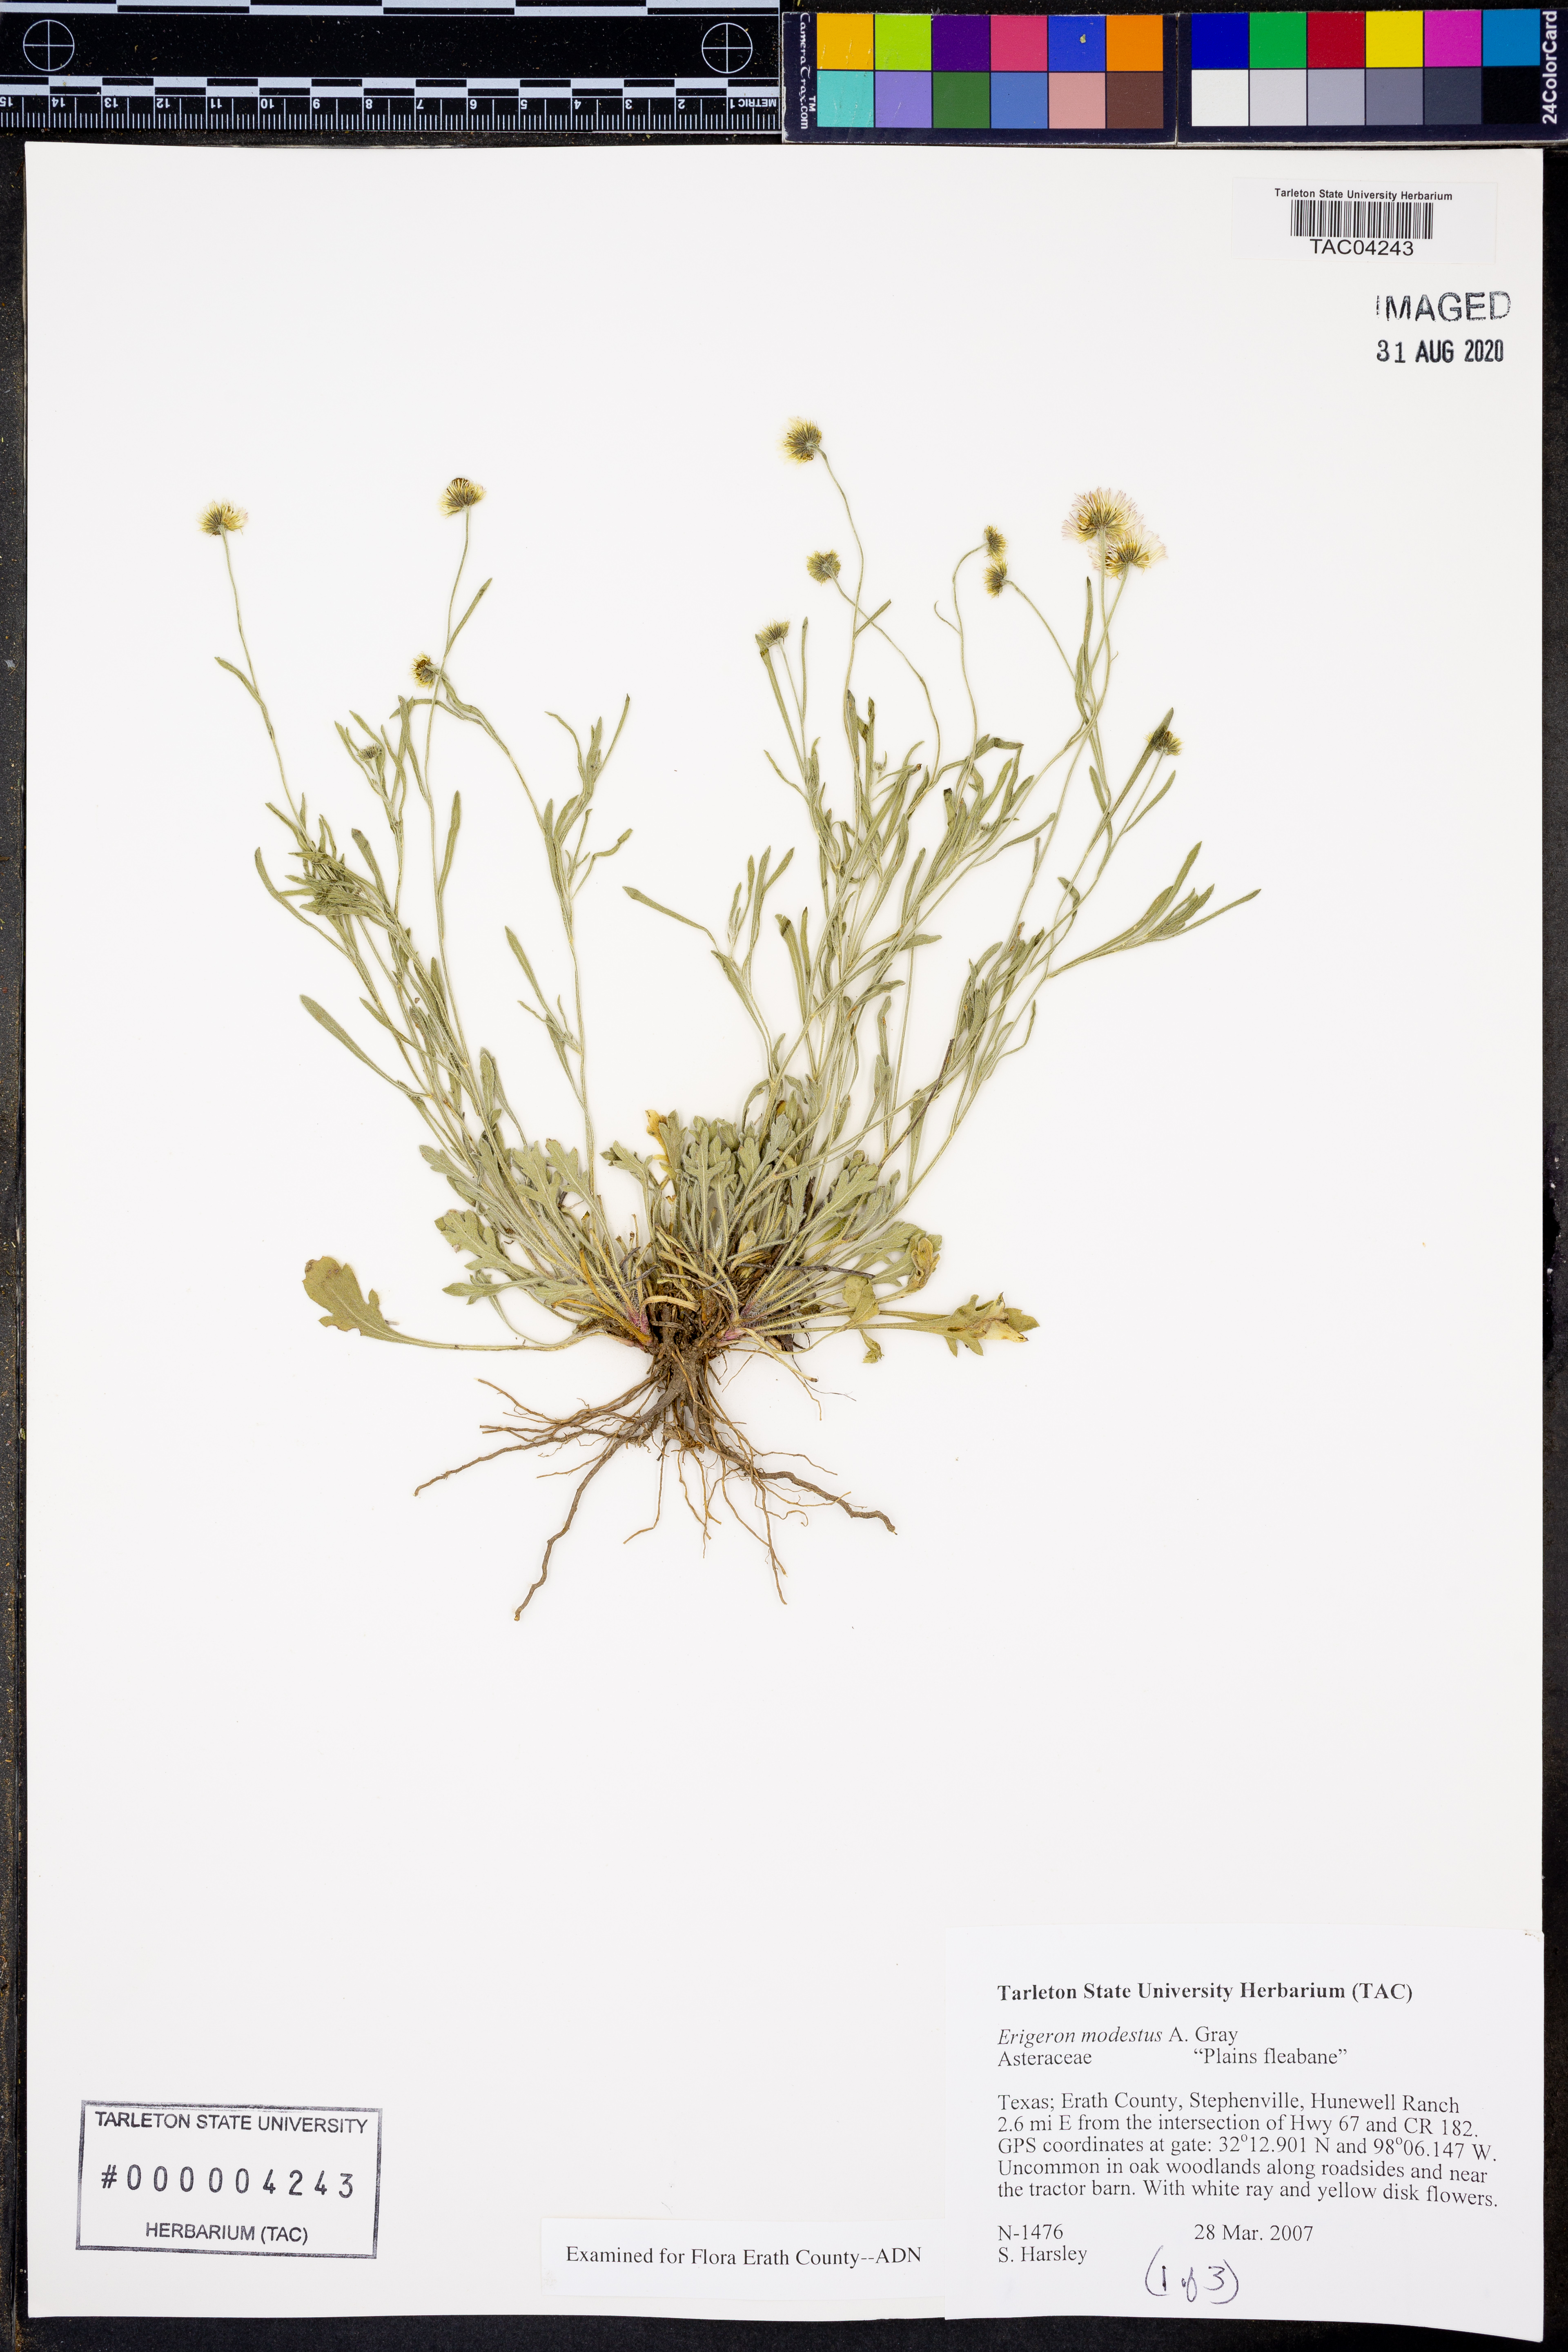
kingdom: Plantae
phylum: Tracheophyta
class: Magnoliopsida
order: Asterales
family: Asteraceae
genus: Erigeron
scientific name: Erigeron modestus
